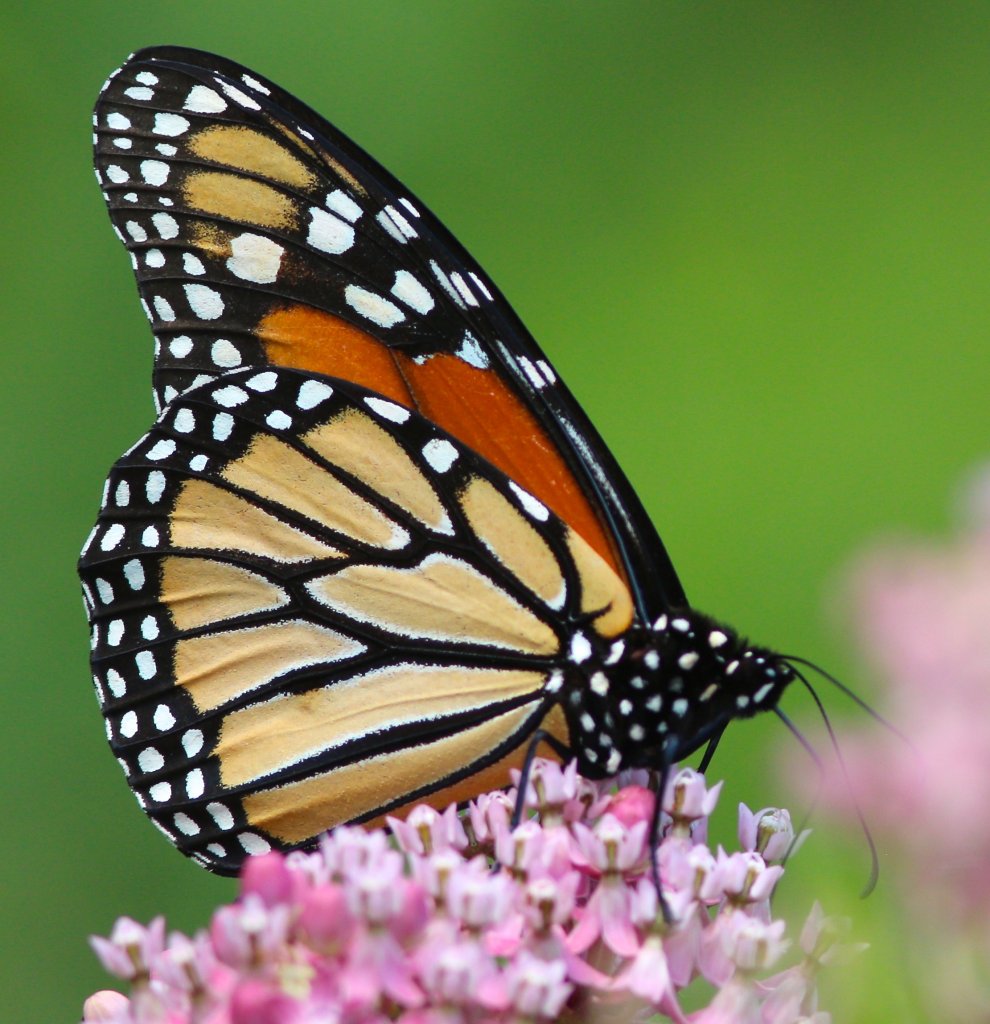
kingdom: Animalia
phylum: Arthropoda
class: Insecta
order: Lepidoptera
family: Nymphalidae
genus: Danaus
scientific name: Danaus plexippus
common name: Monarch
